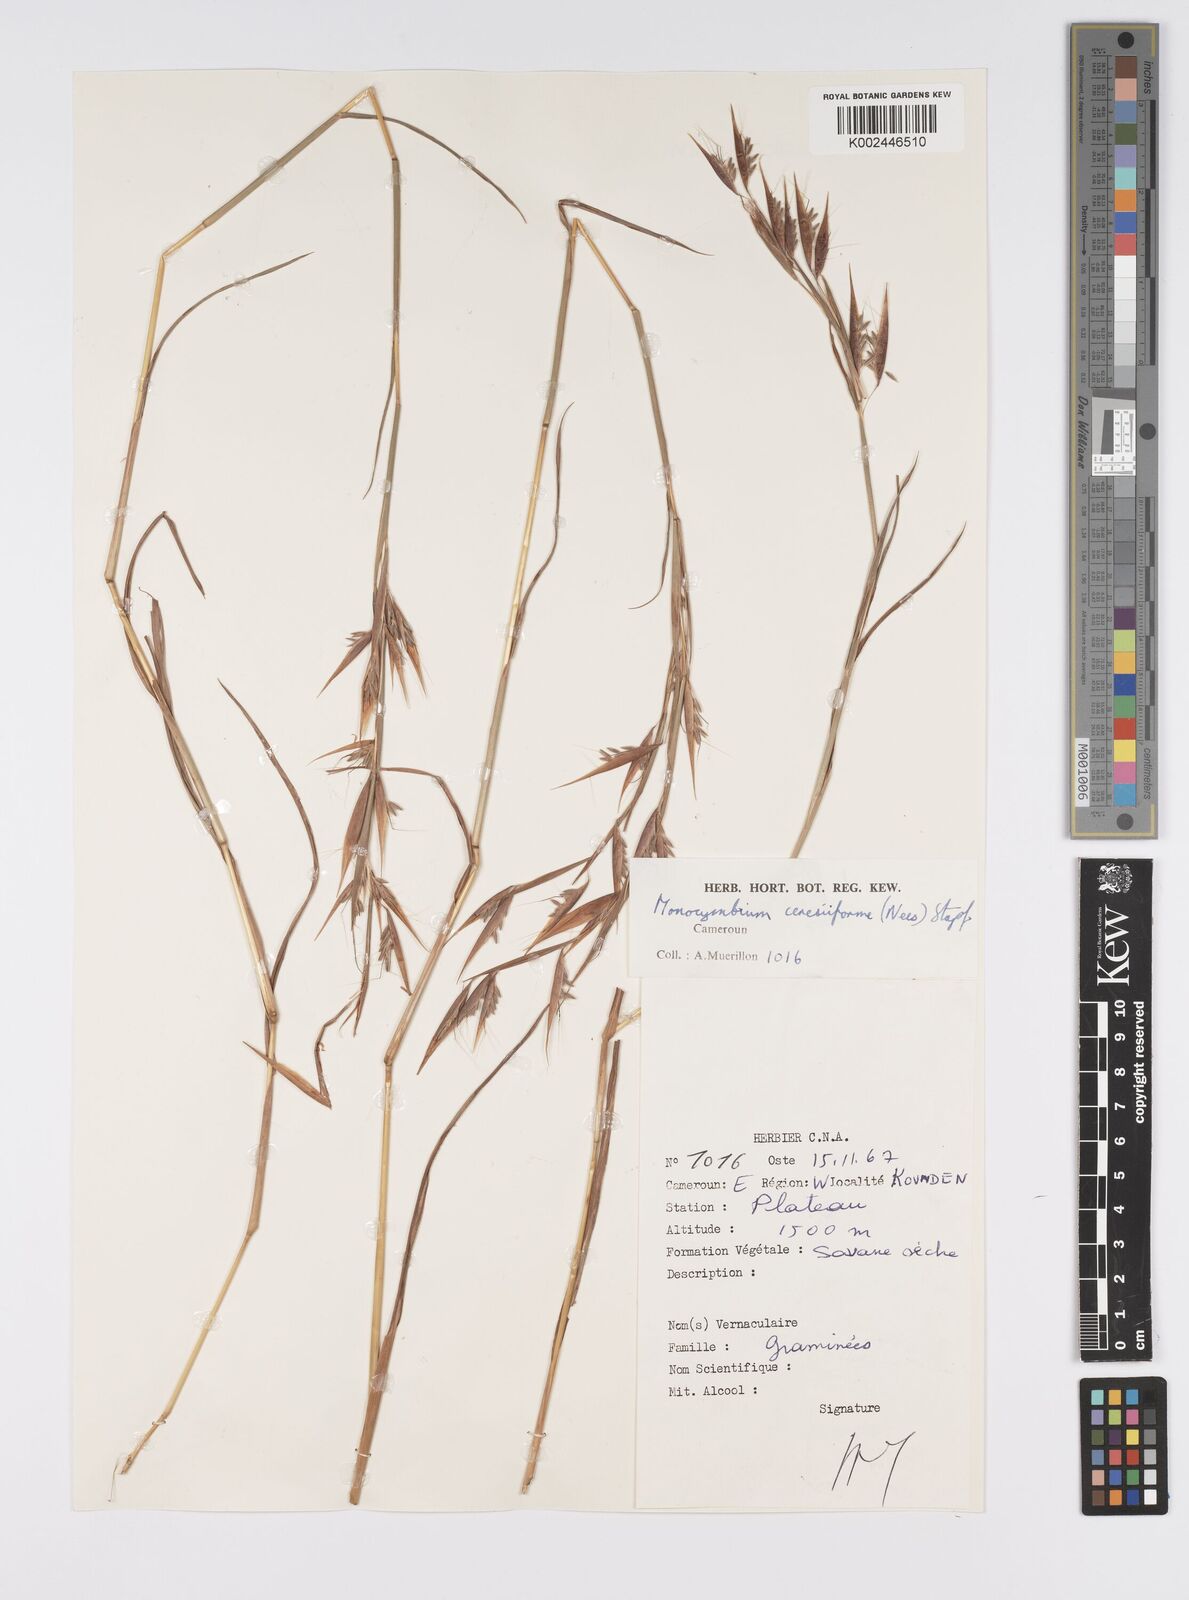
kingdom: Plantae
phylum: Tracheophyta
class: Liliopsida
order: Poales
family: Poaceae
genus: Monocymbium
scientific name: Monocymbium ceresiiforme
